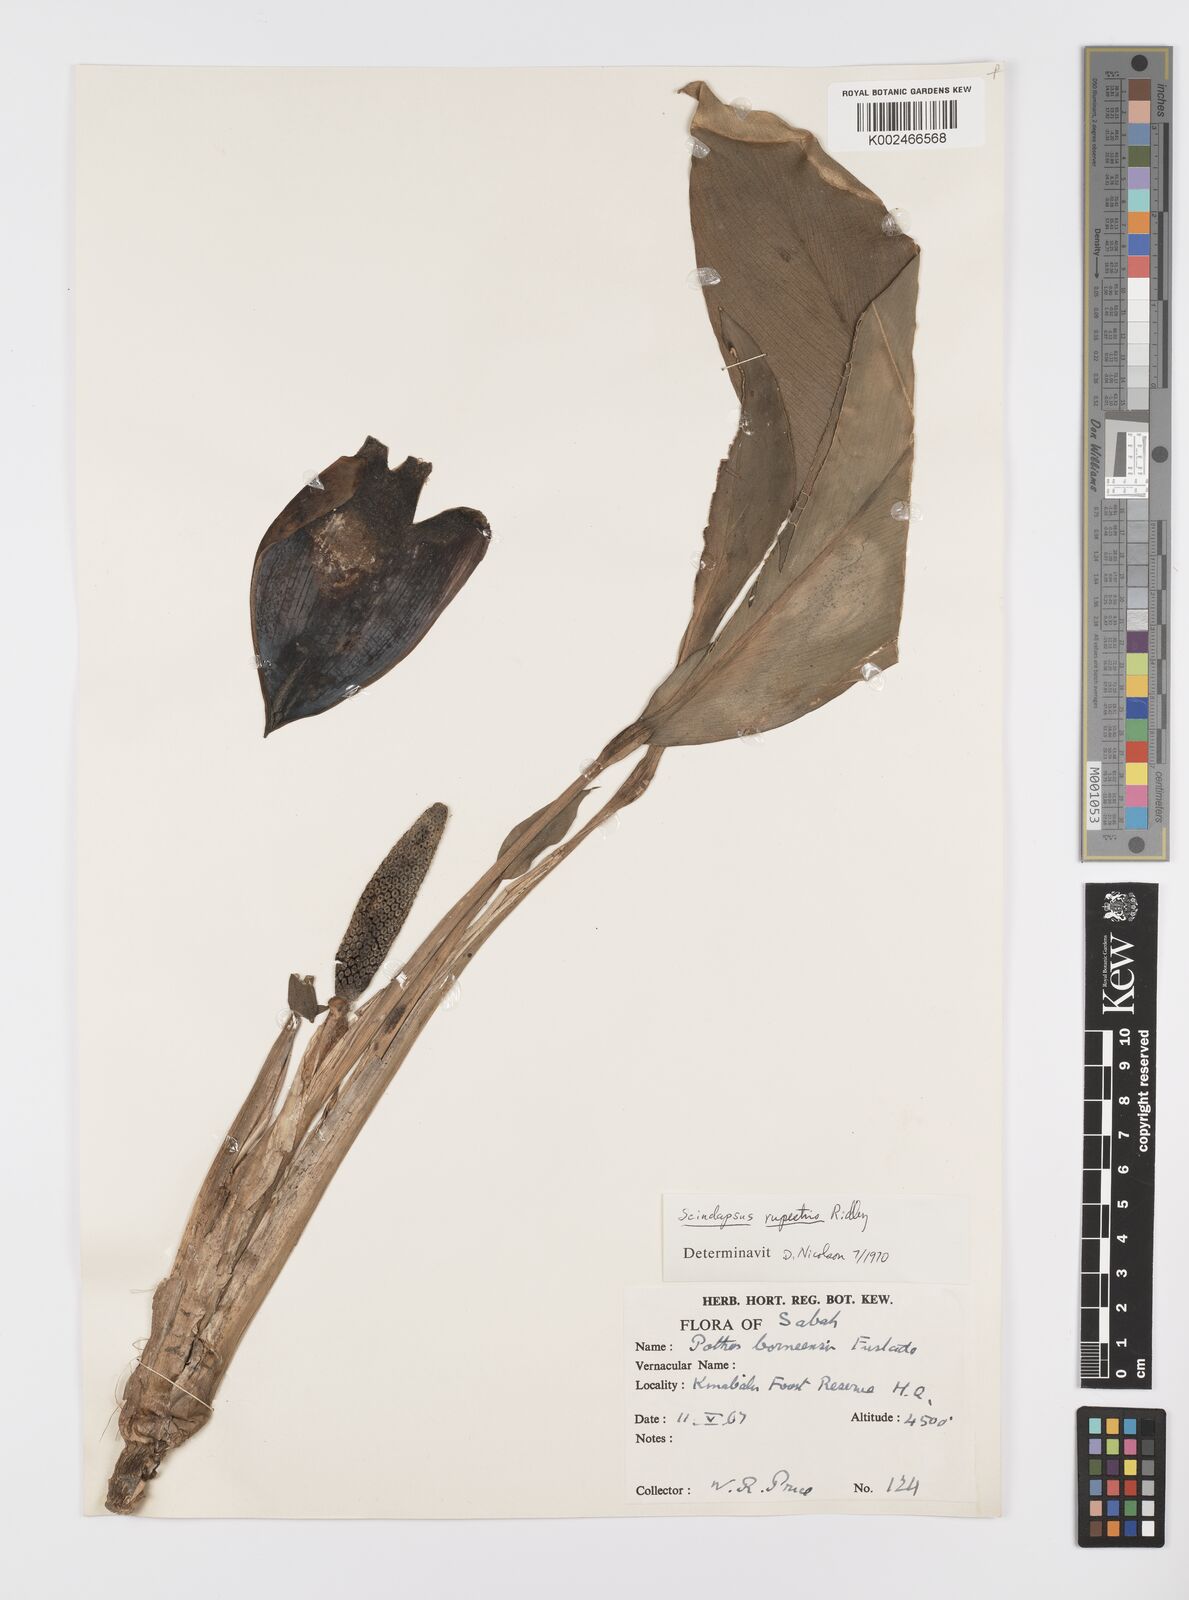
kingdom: Plantae
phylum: Tracheophyta
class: Liliopsida
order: Alismatales
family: Araceae
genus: Scindapsus
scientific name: Scindapsus coriaceus
